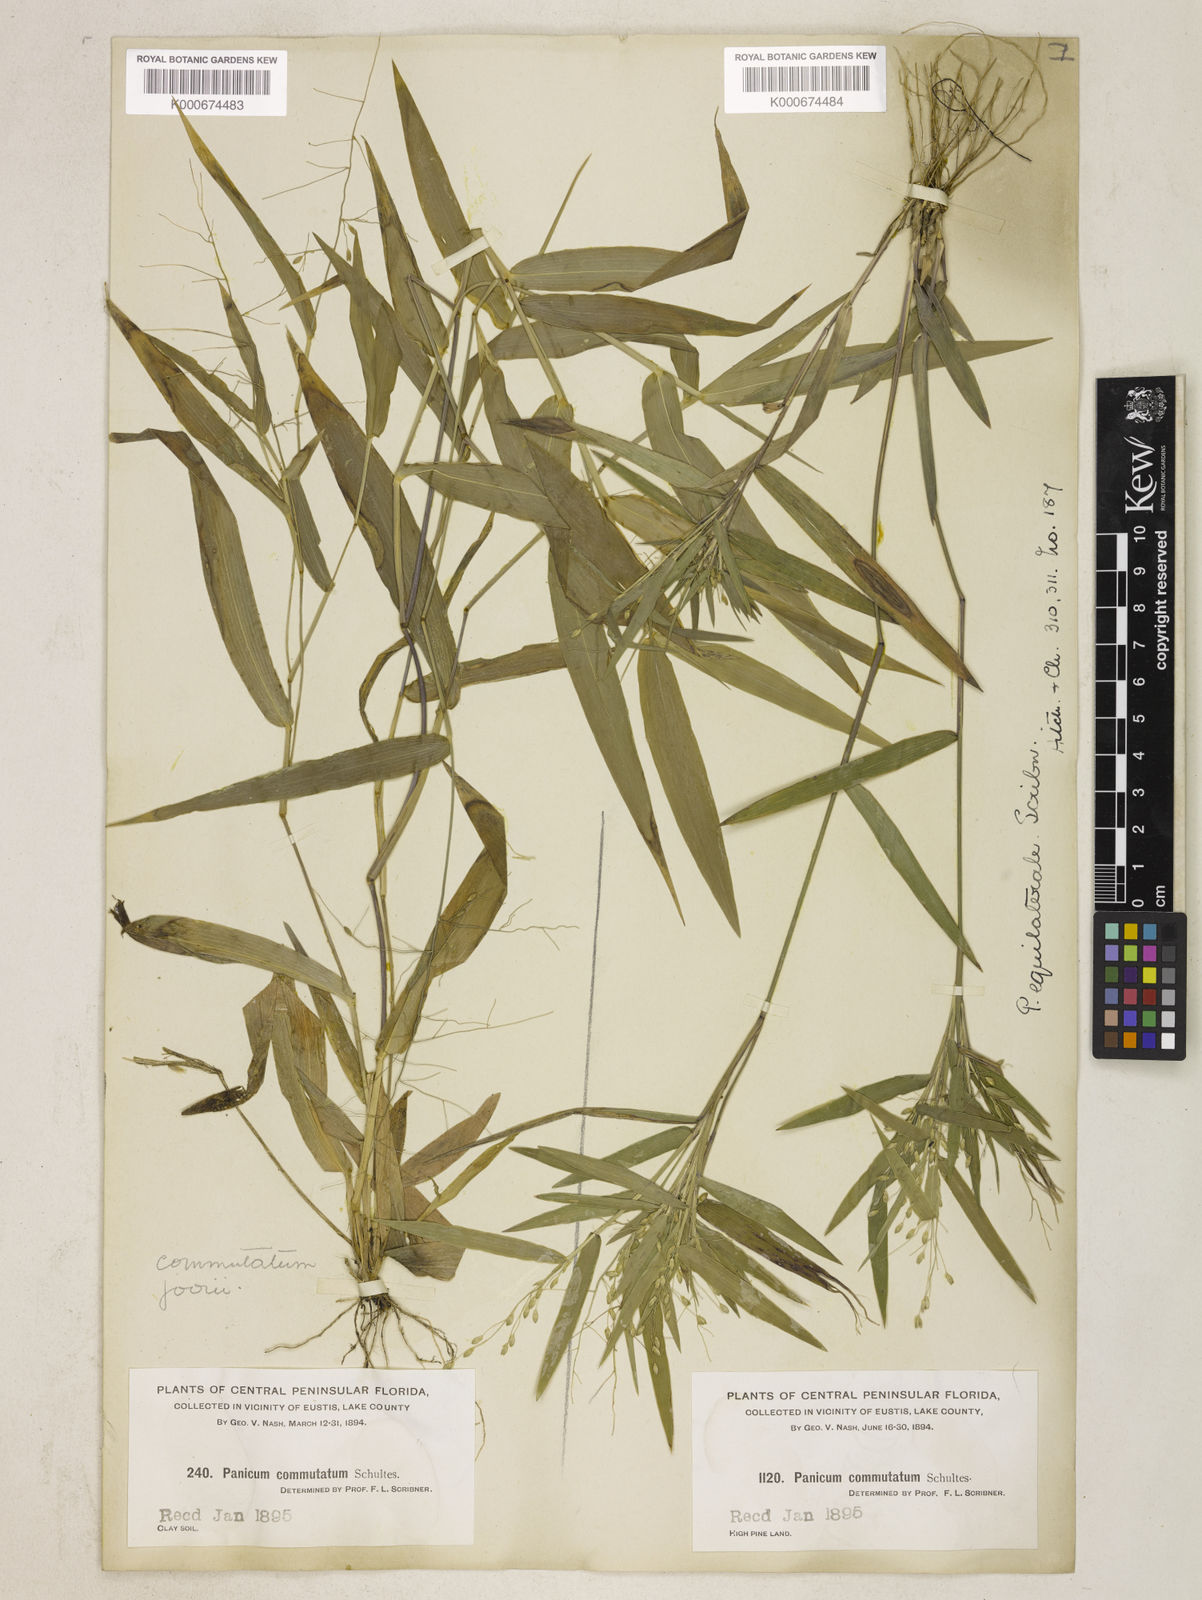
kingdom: Plantae
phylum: Tracheophyta
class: Liliopsida
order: Poales
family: Poaceae
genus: Dichanthelium
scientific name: Dichanthelium equilaterale
